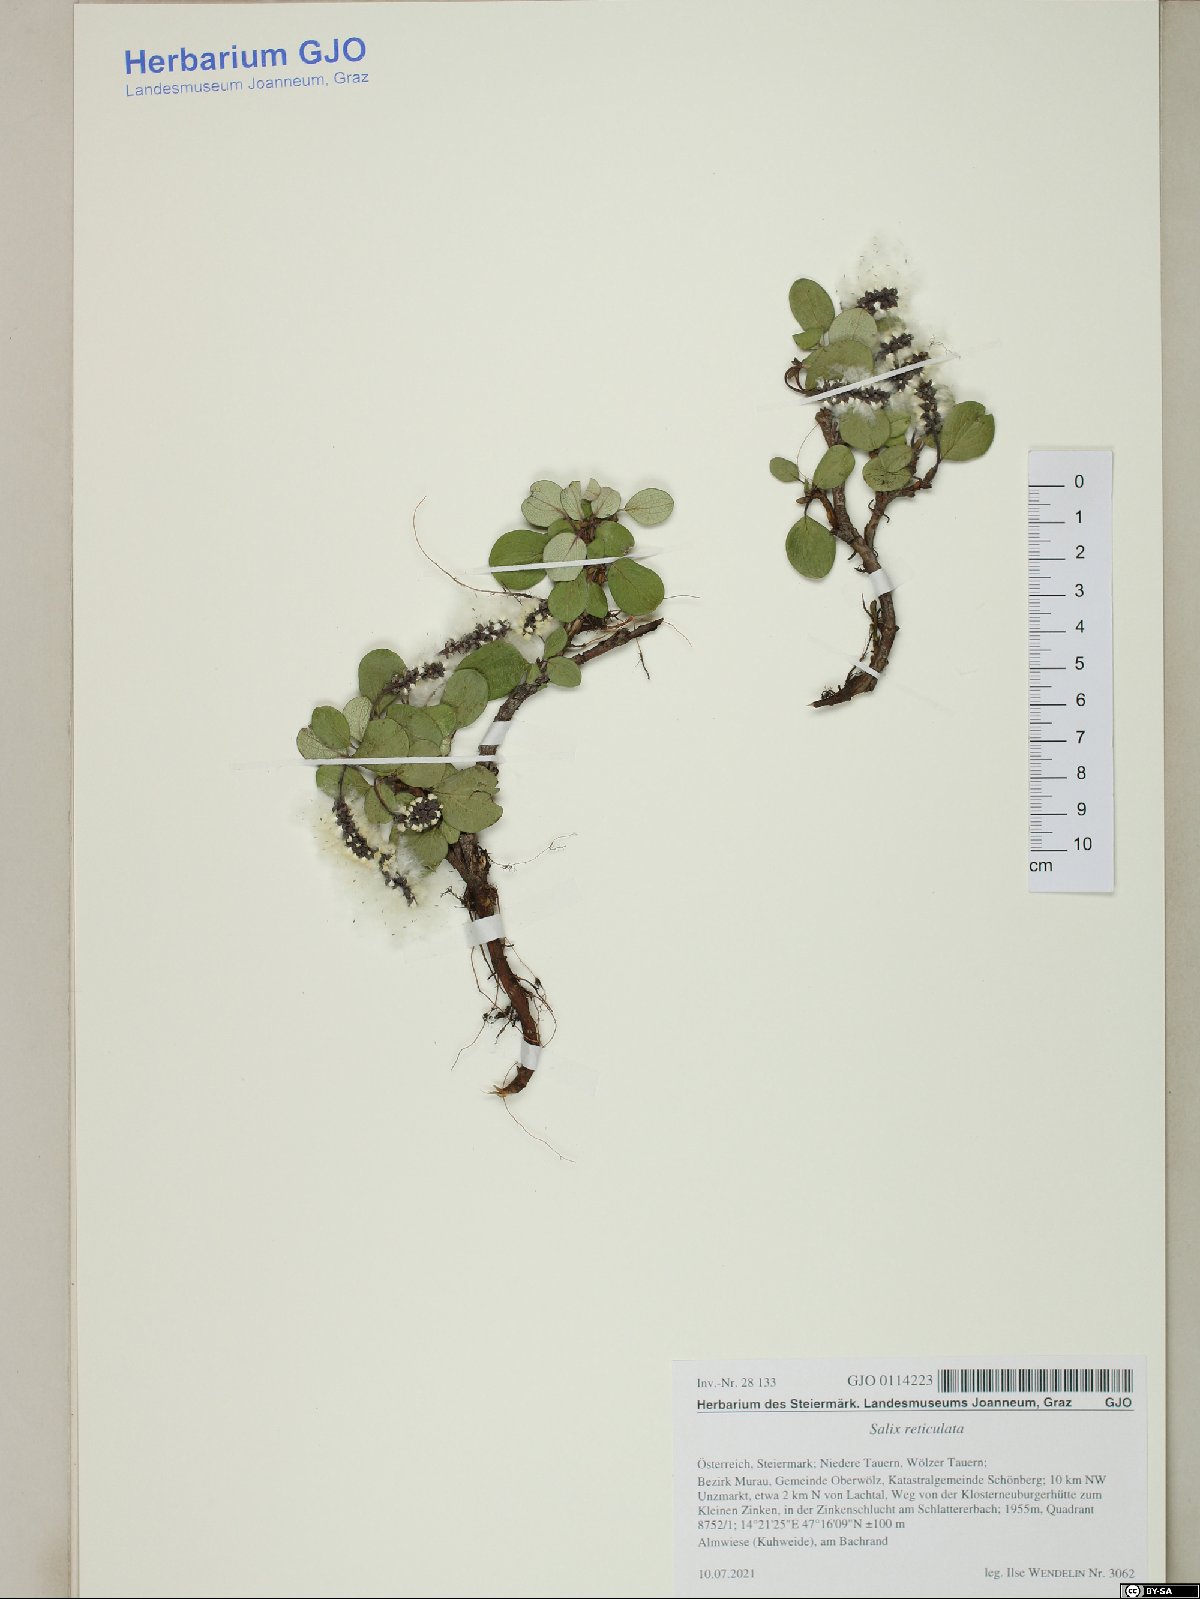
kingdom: Plantae
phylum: Tracheophyta
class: Magnoliopsida
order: Malpighiales
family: Salicaceae
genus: Salix
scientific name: Salix reticulata
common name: Net-leaved willow
